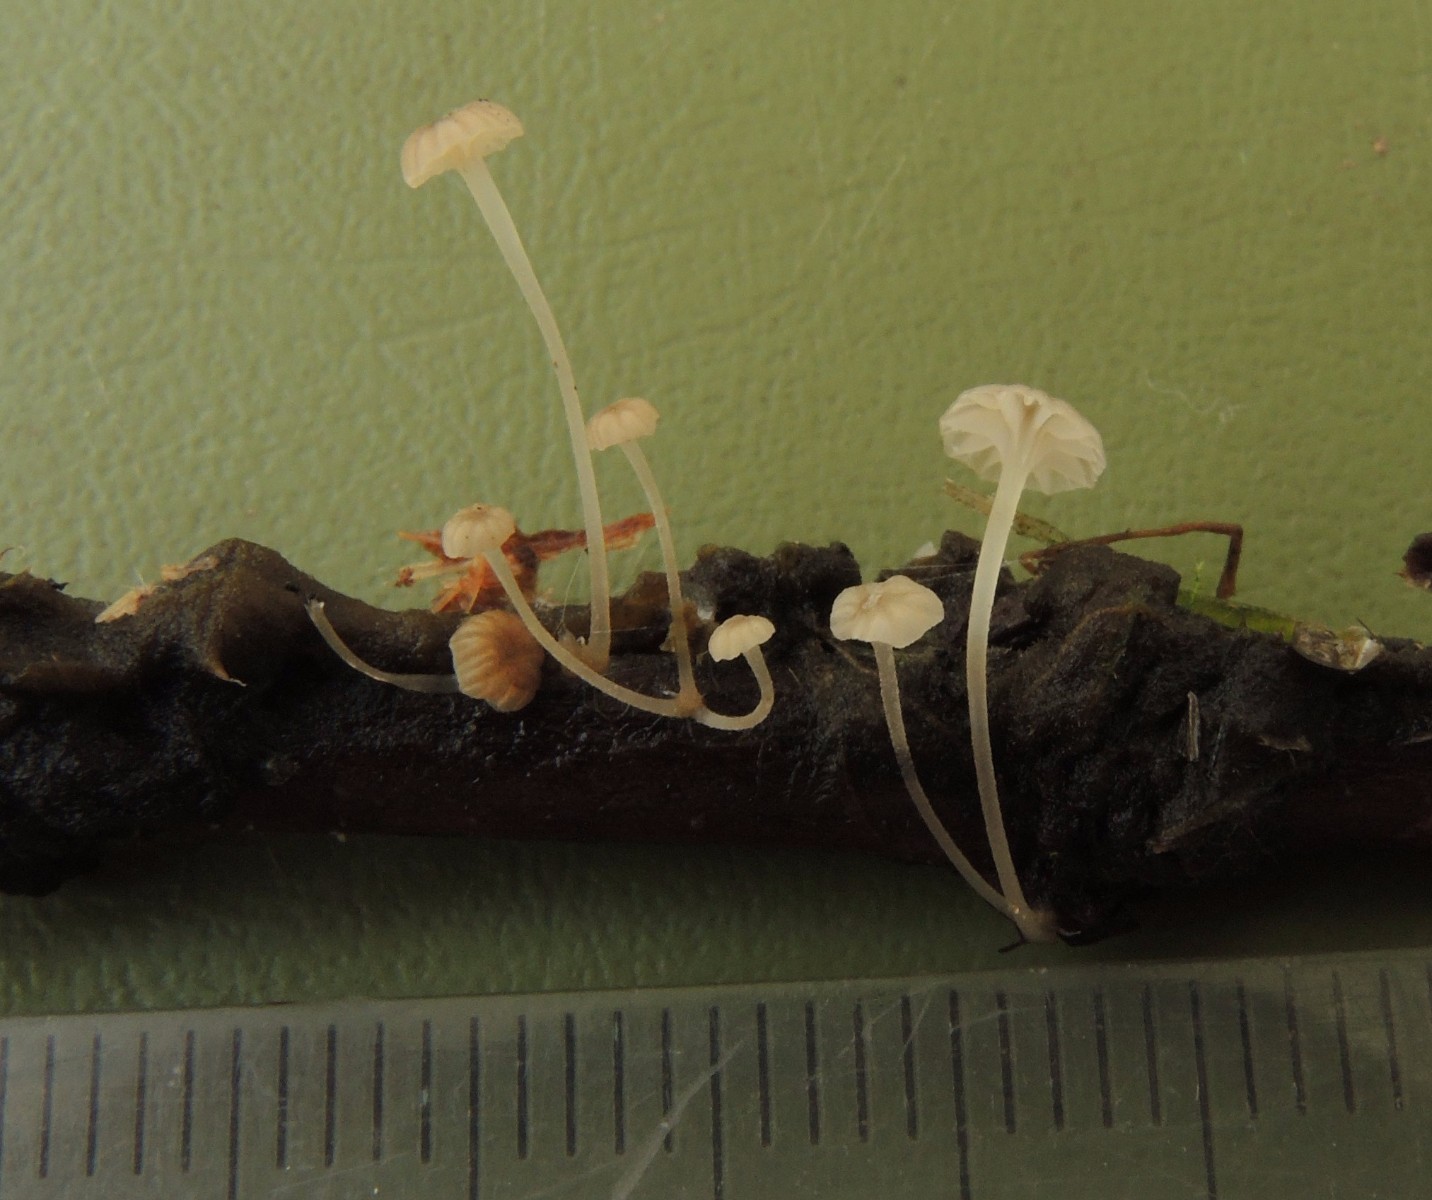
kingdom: Fungi
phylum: Basidiomycota
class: Agaricomycetes
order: Agaricales
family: Porotheleaceae
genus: Phloeomana
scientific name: Phloeomana speirea
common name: kvist-huesvamp
